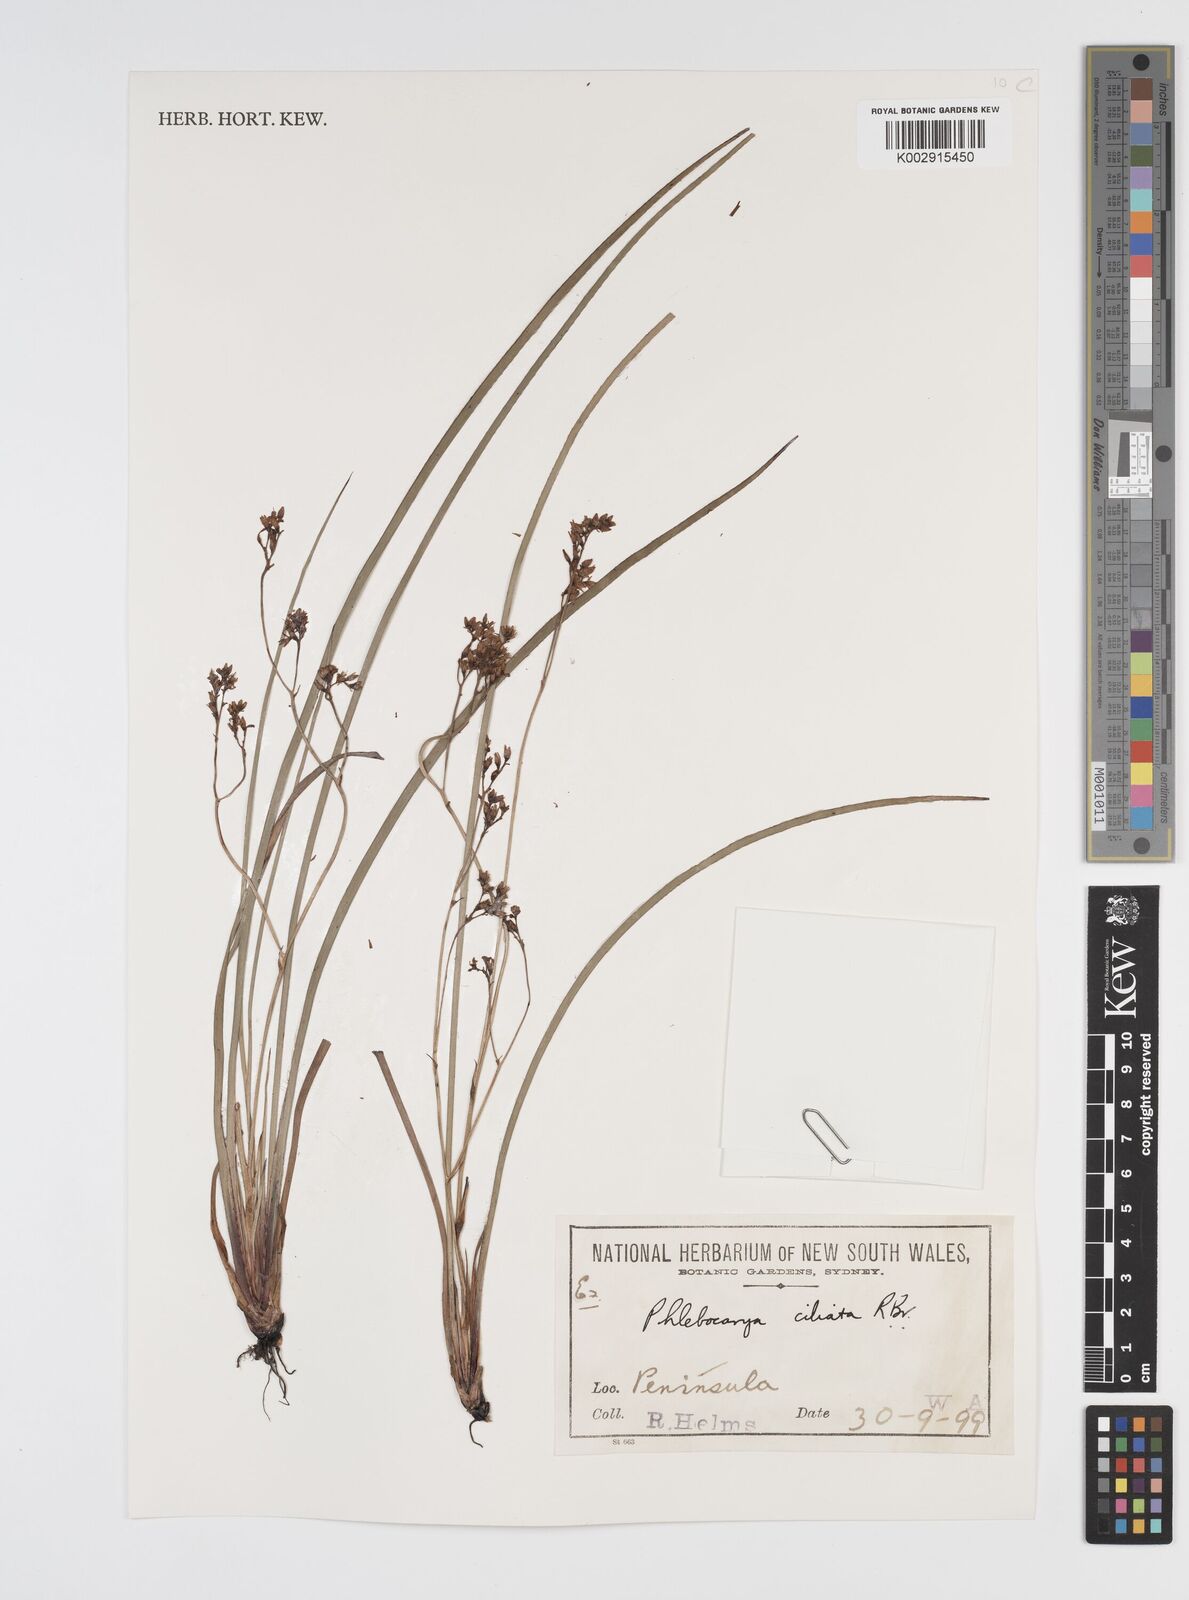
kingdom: Plantae
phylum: Tracheophyta
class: Liliopsida
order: Commelinales
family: Haemodoraceae
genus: Phlebocarya
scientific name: Phlebocarya ciliata
